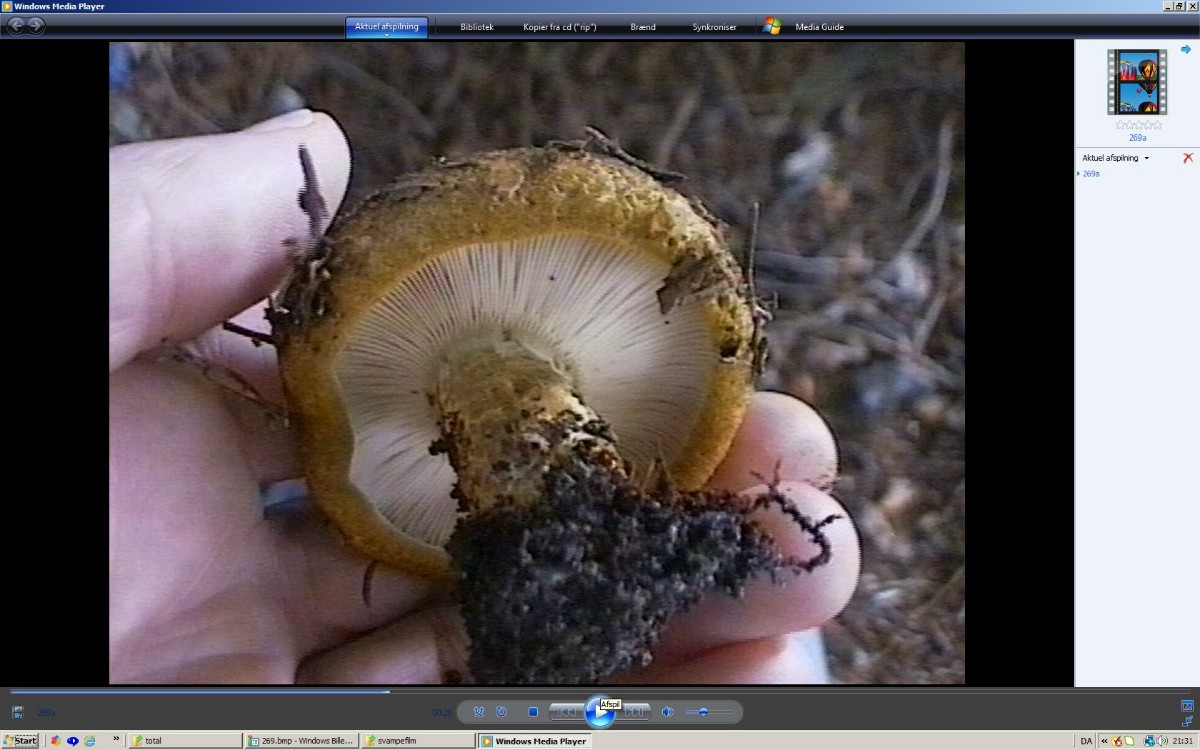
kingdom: Fungi
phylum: Basidiomycota
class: Agaricomycetes
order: Russulales
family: Russulaceae
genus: Lactarius
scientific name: Lactarius necator
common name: manddraber-mælkehat
